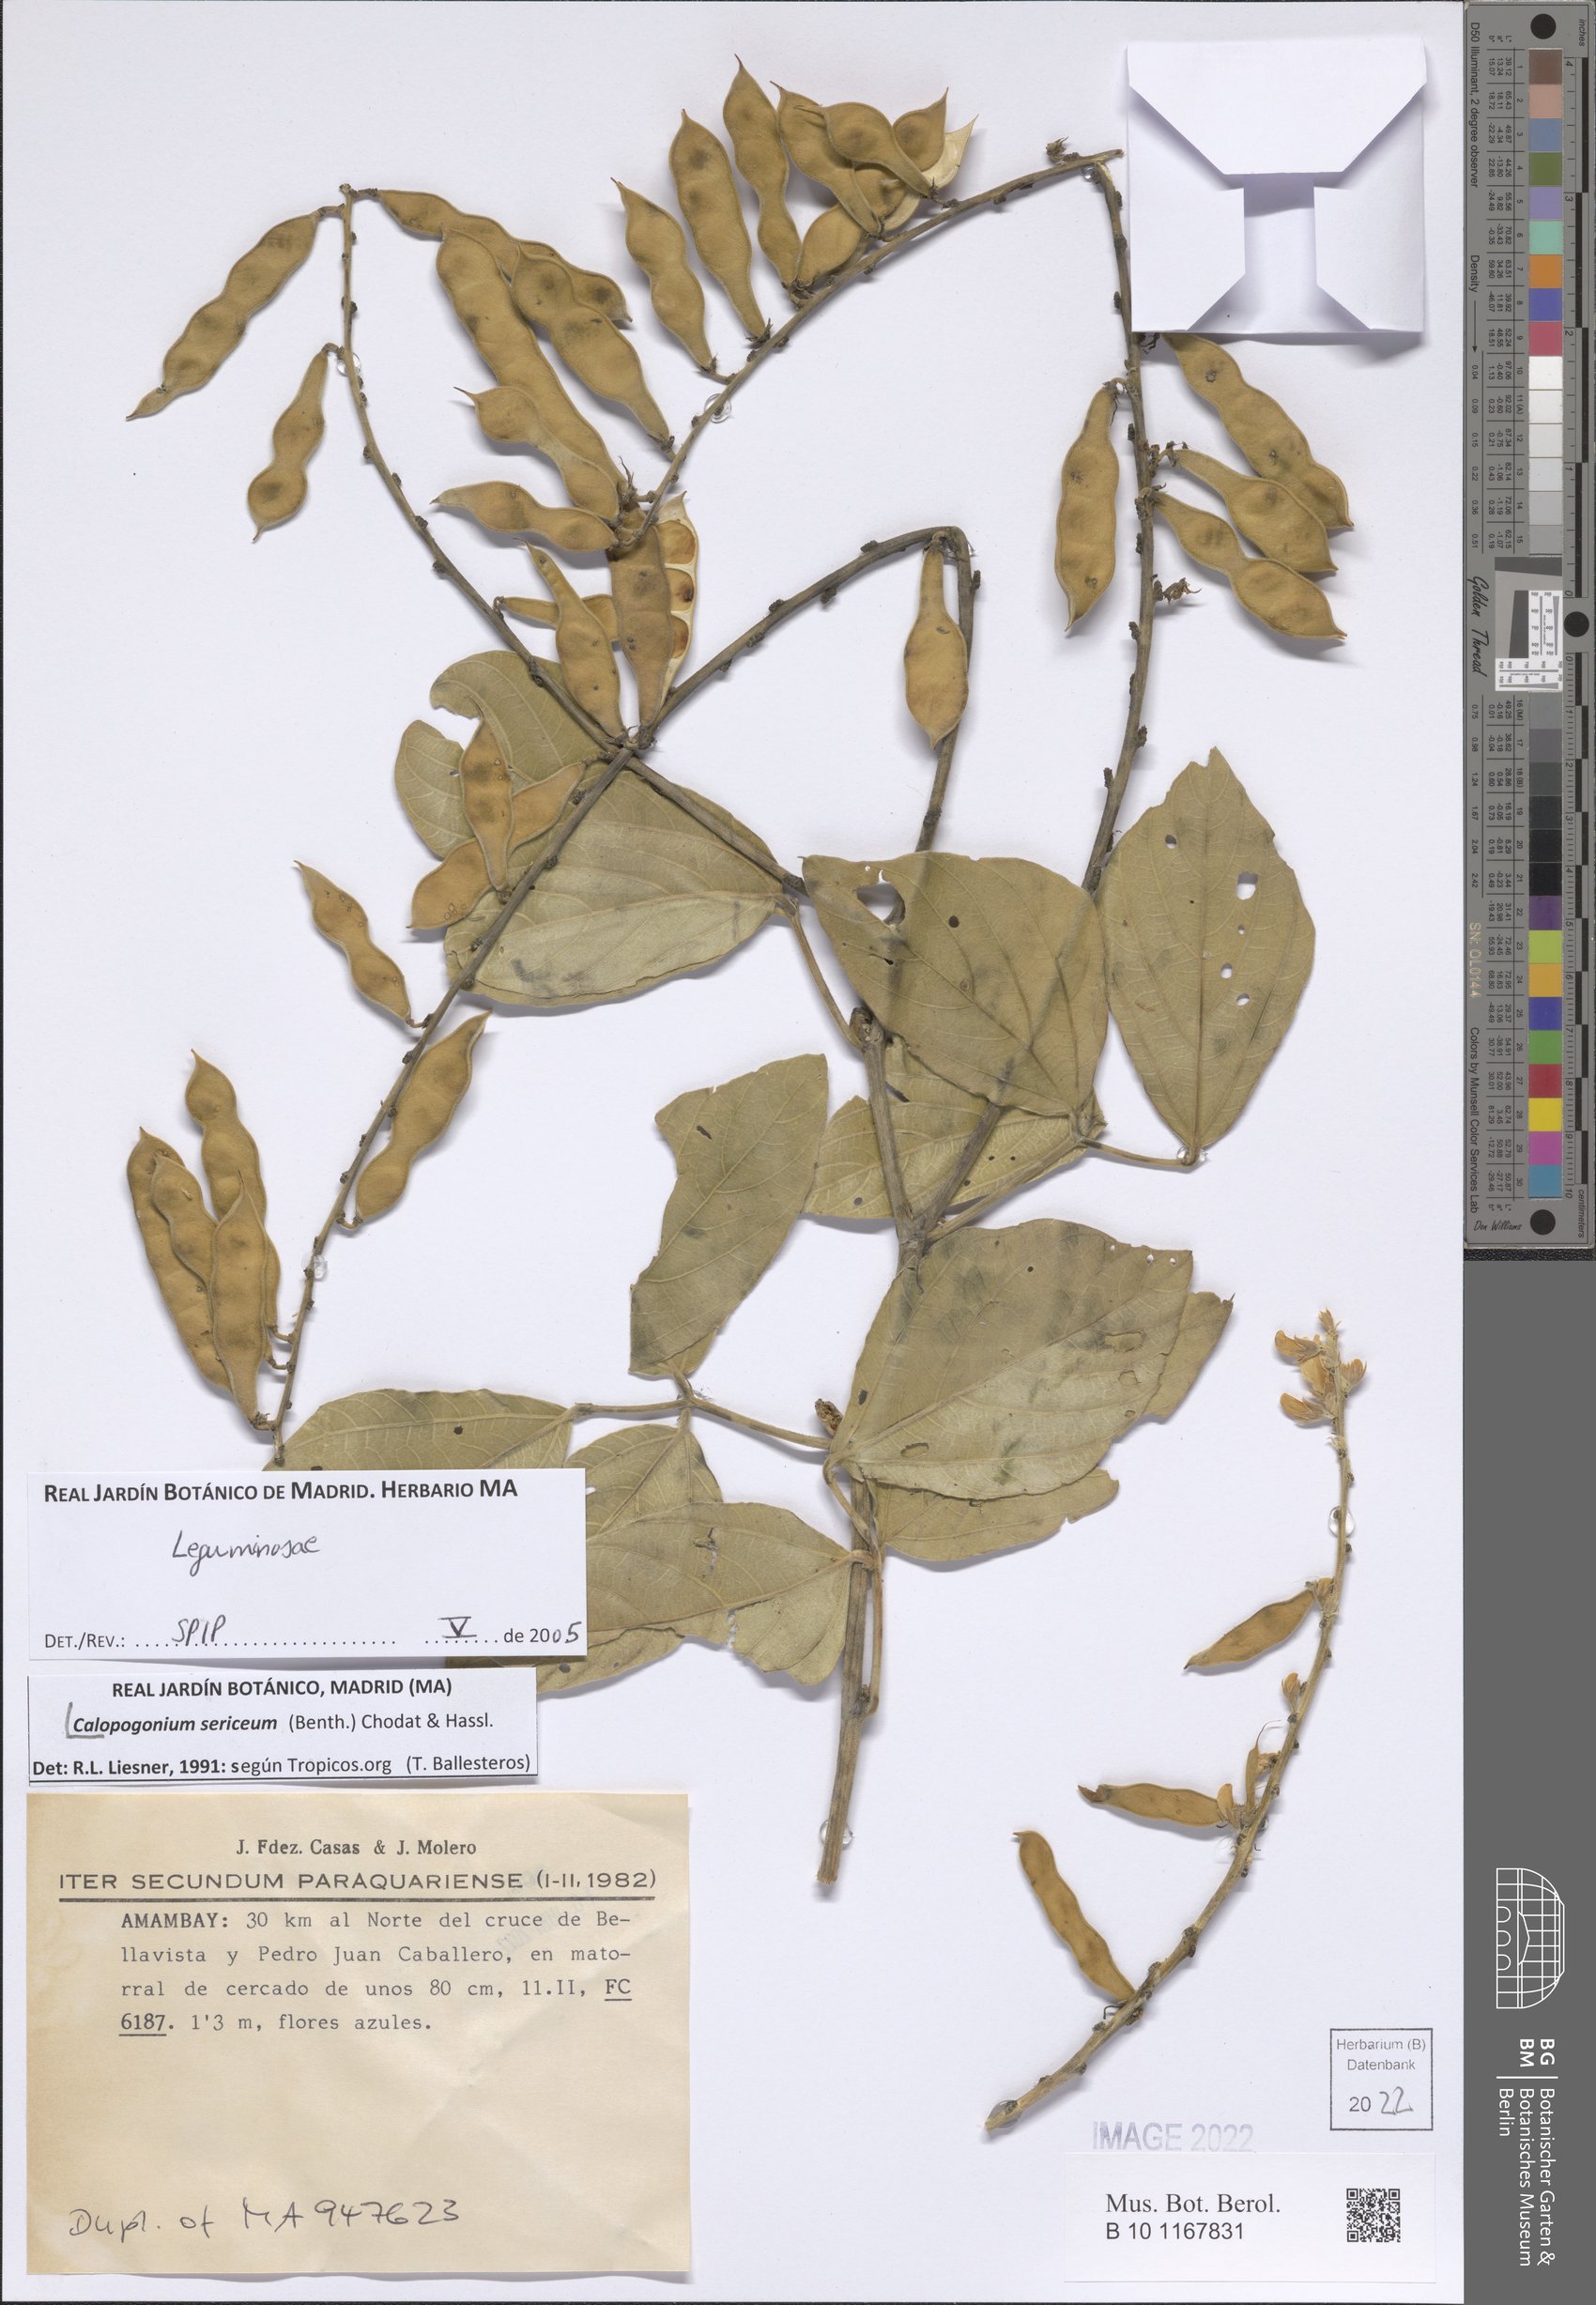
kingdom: Plantae
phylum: Tracheophyta
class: Magnoliopsida
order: Fabales
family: Fabaceae
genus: Calopogonium
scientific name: Calopogonium sericeum
